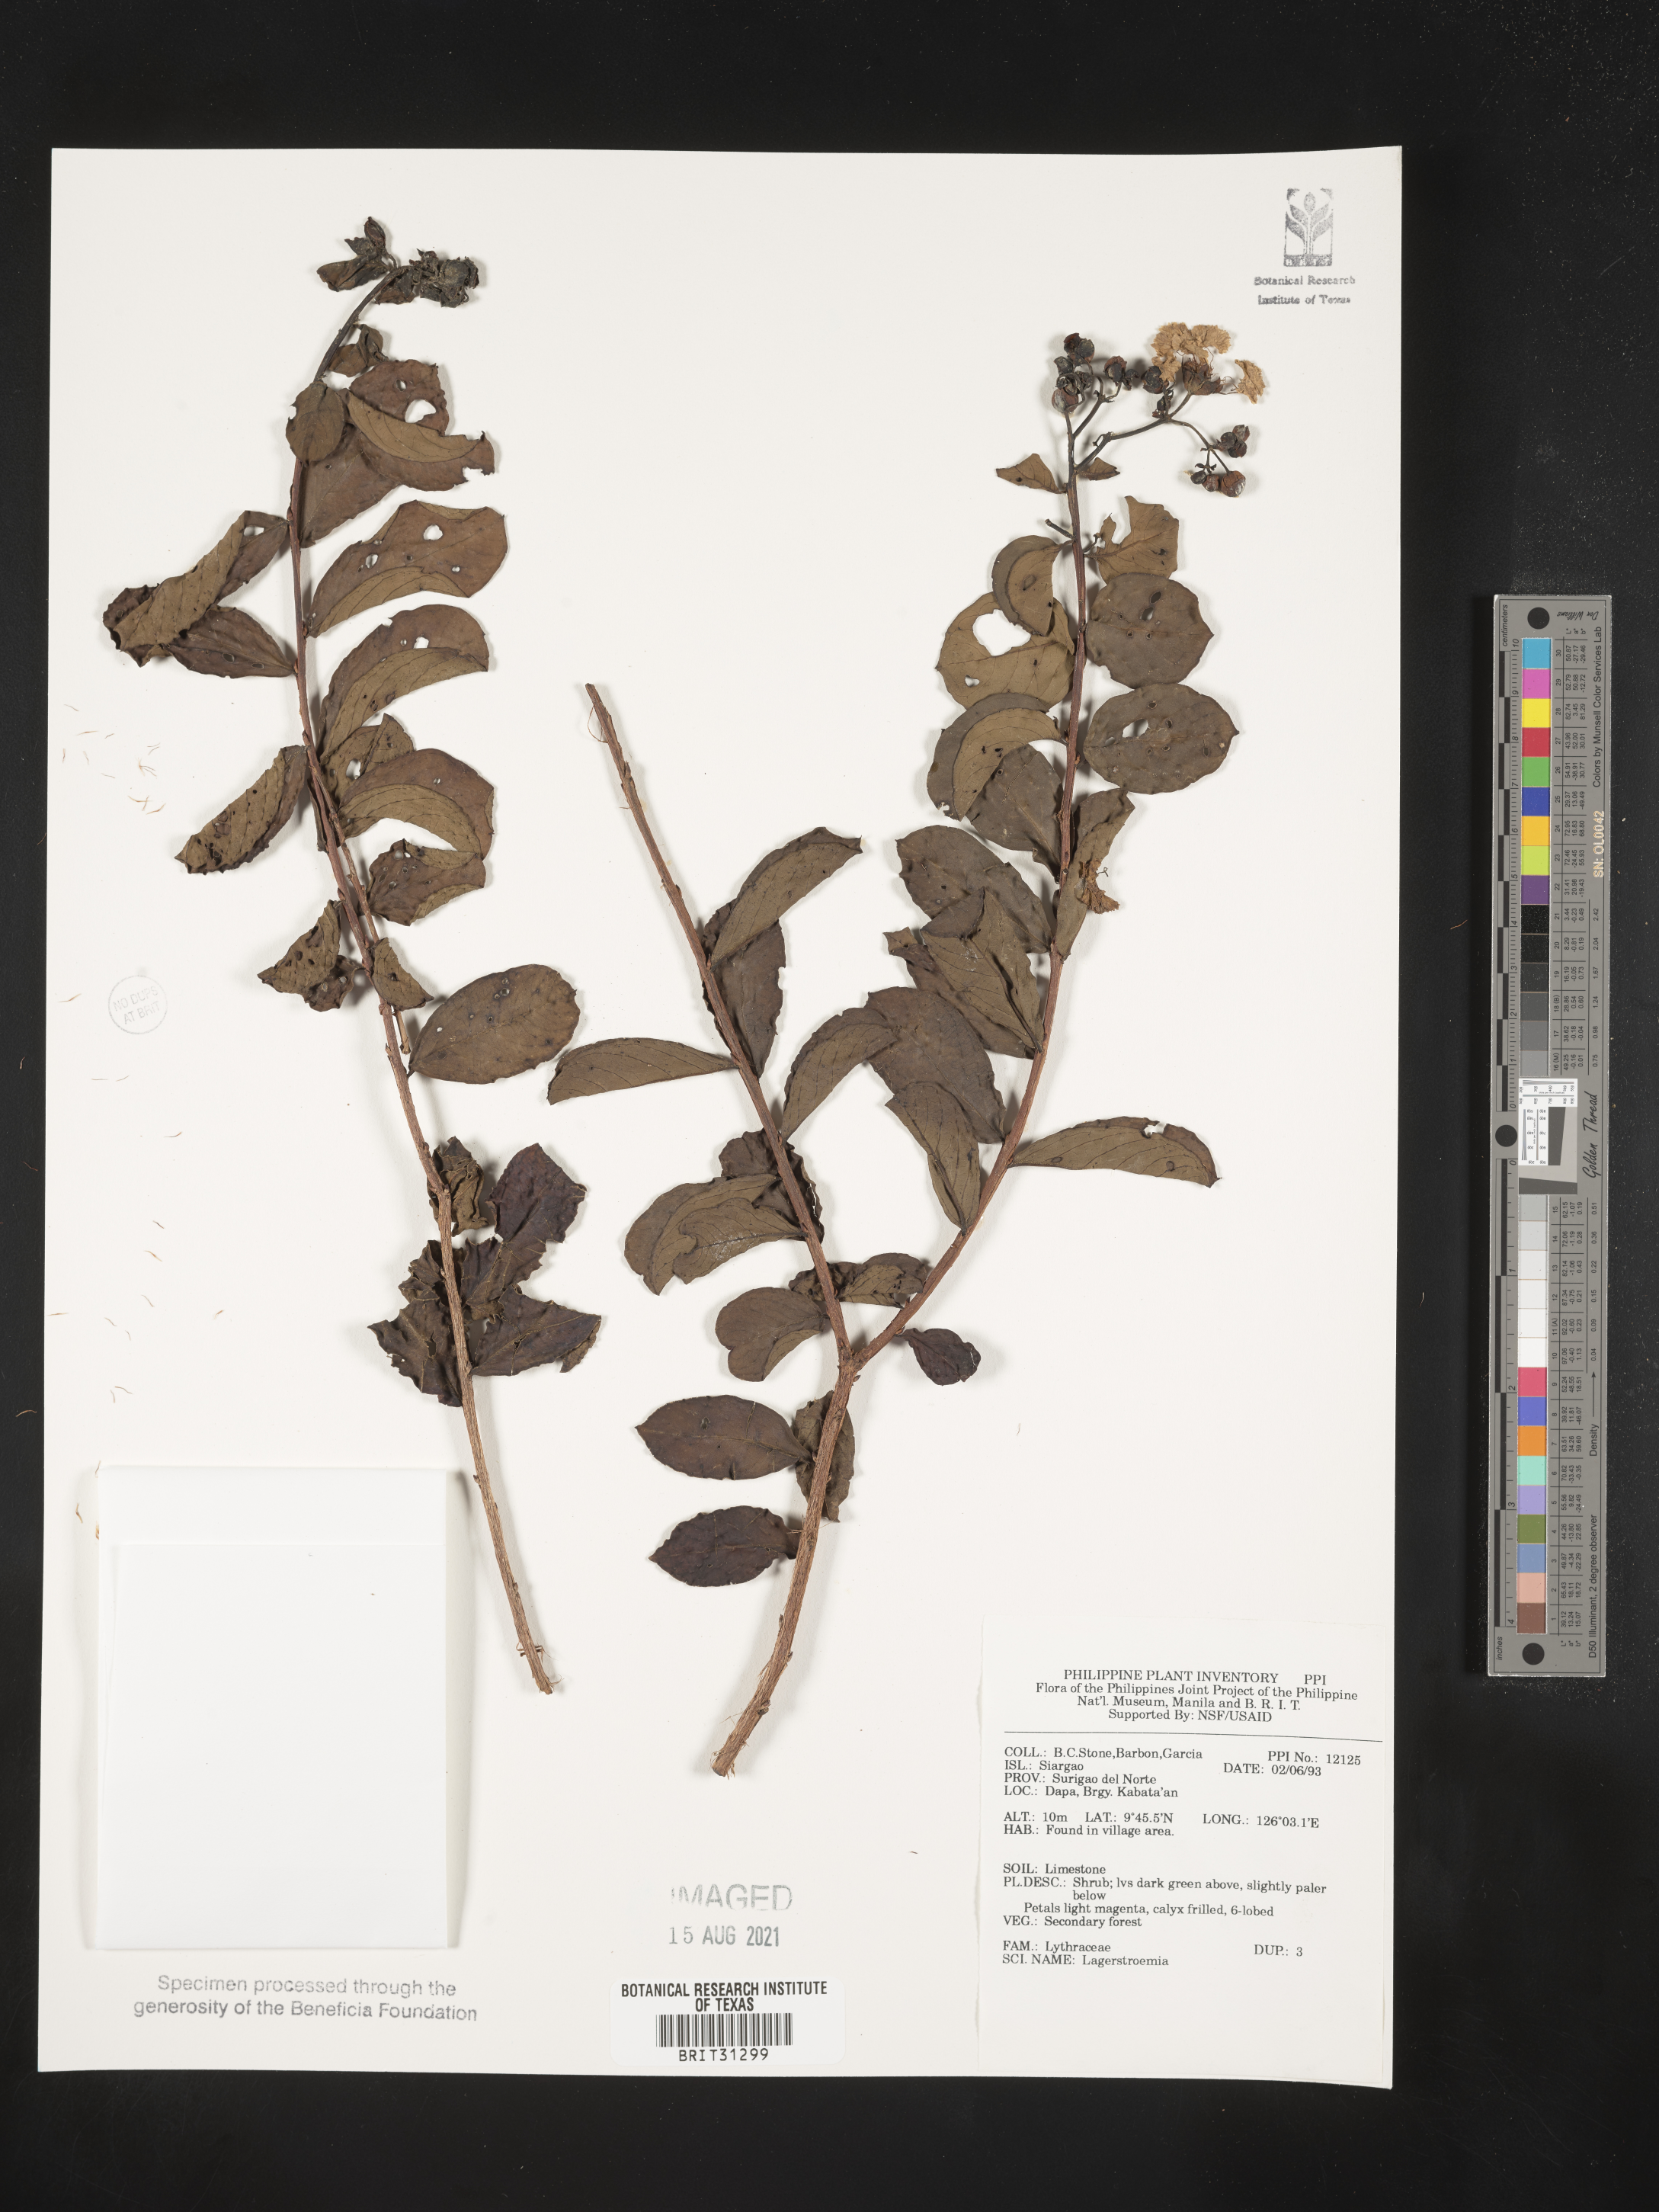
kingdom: Plantae
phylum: Tracheophyta
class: Magnoliopsida
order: Myrtales
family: Lythraceae
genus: Lagerstroemia
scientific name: Lagerstroemia
